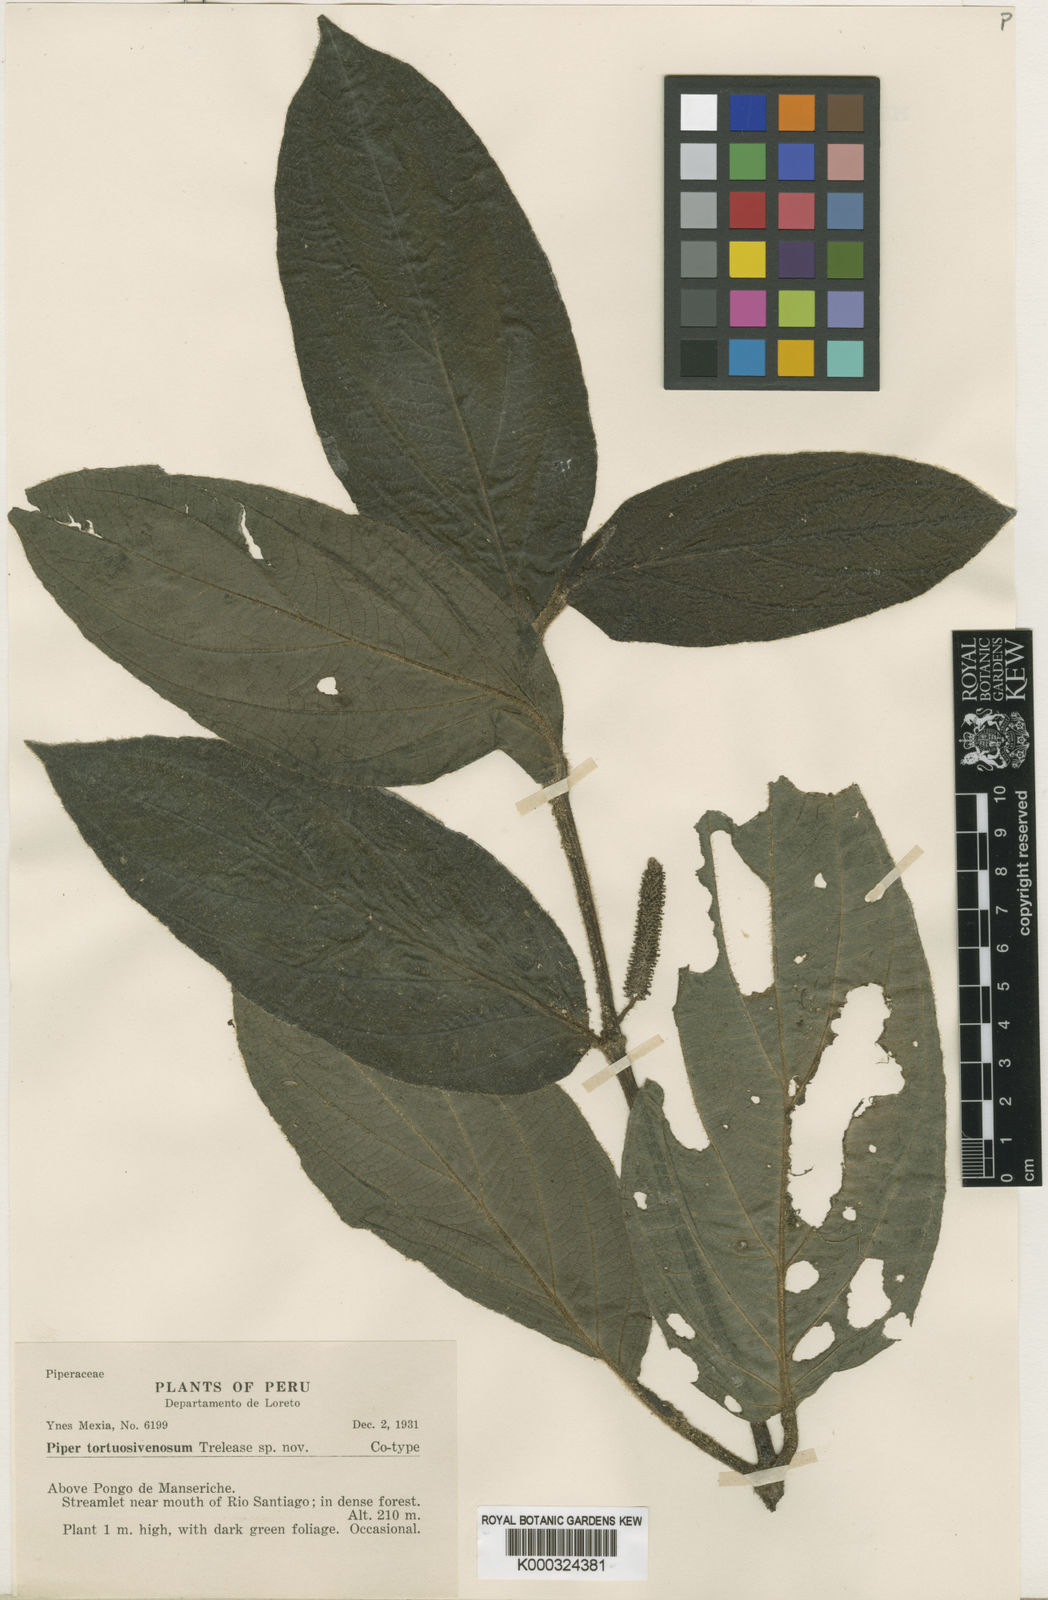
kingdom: Plantae
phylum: Tracheophyta
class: Magnoliopsida
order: Piperales
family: Piperaceae
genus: Piper
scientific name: Piper tortuosivenosum
